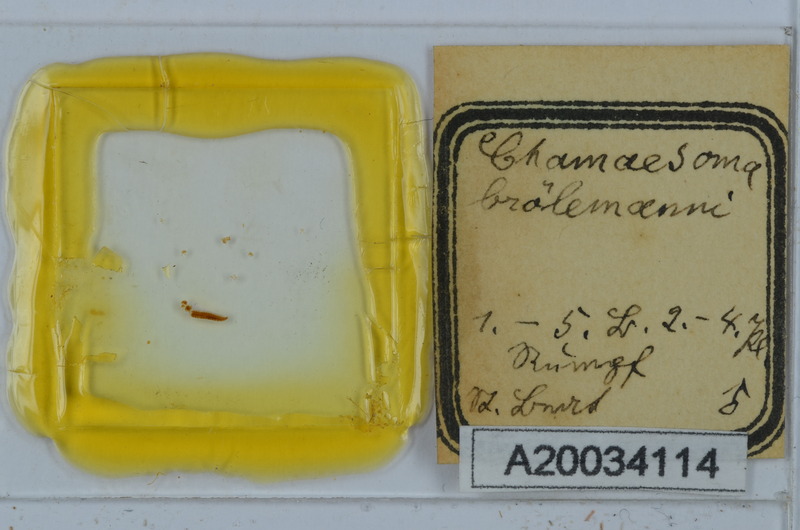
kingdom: Animalia
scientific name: Animalia
